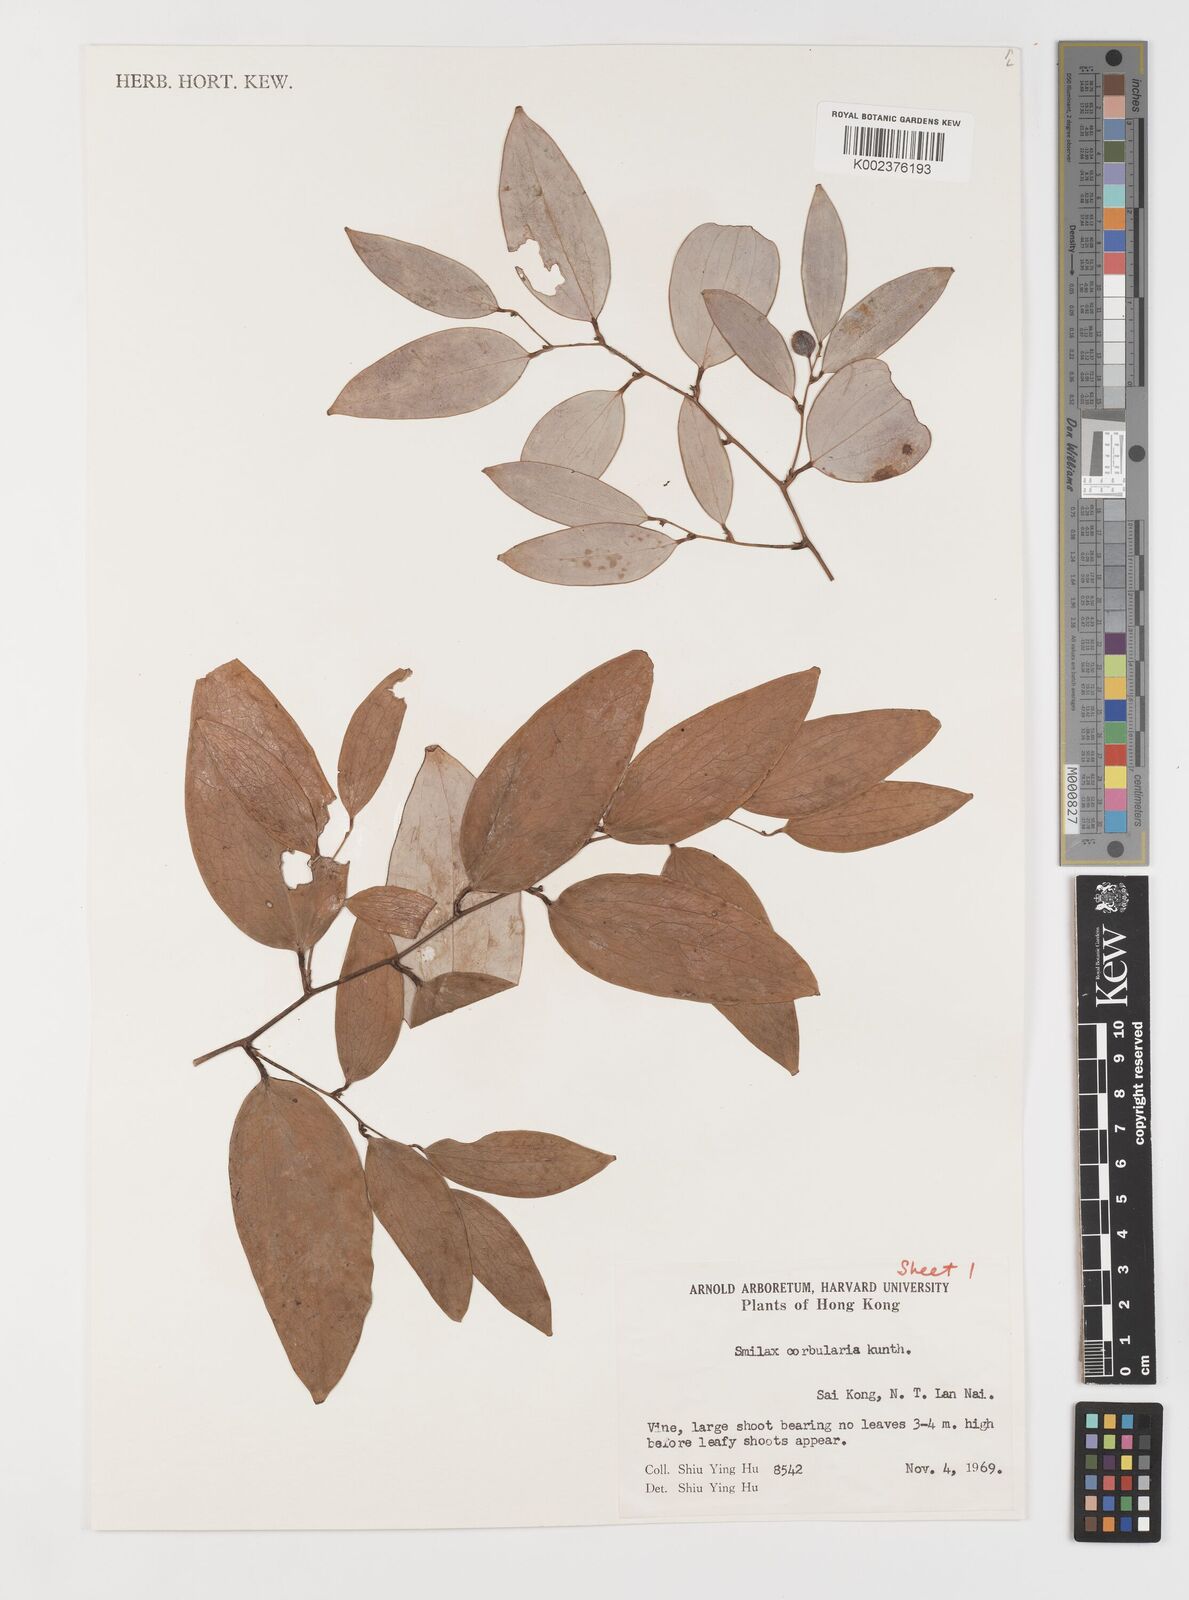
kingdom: Plantae
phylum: Tracheophyta
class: Liliopsida
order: Liliales
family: Smilacaceae
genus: Smilax
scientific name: Smilax corbularia
